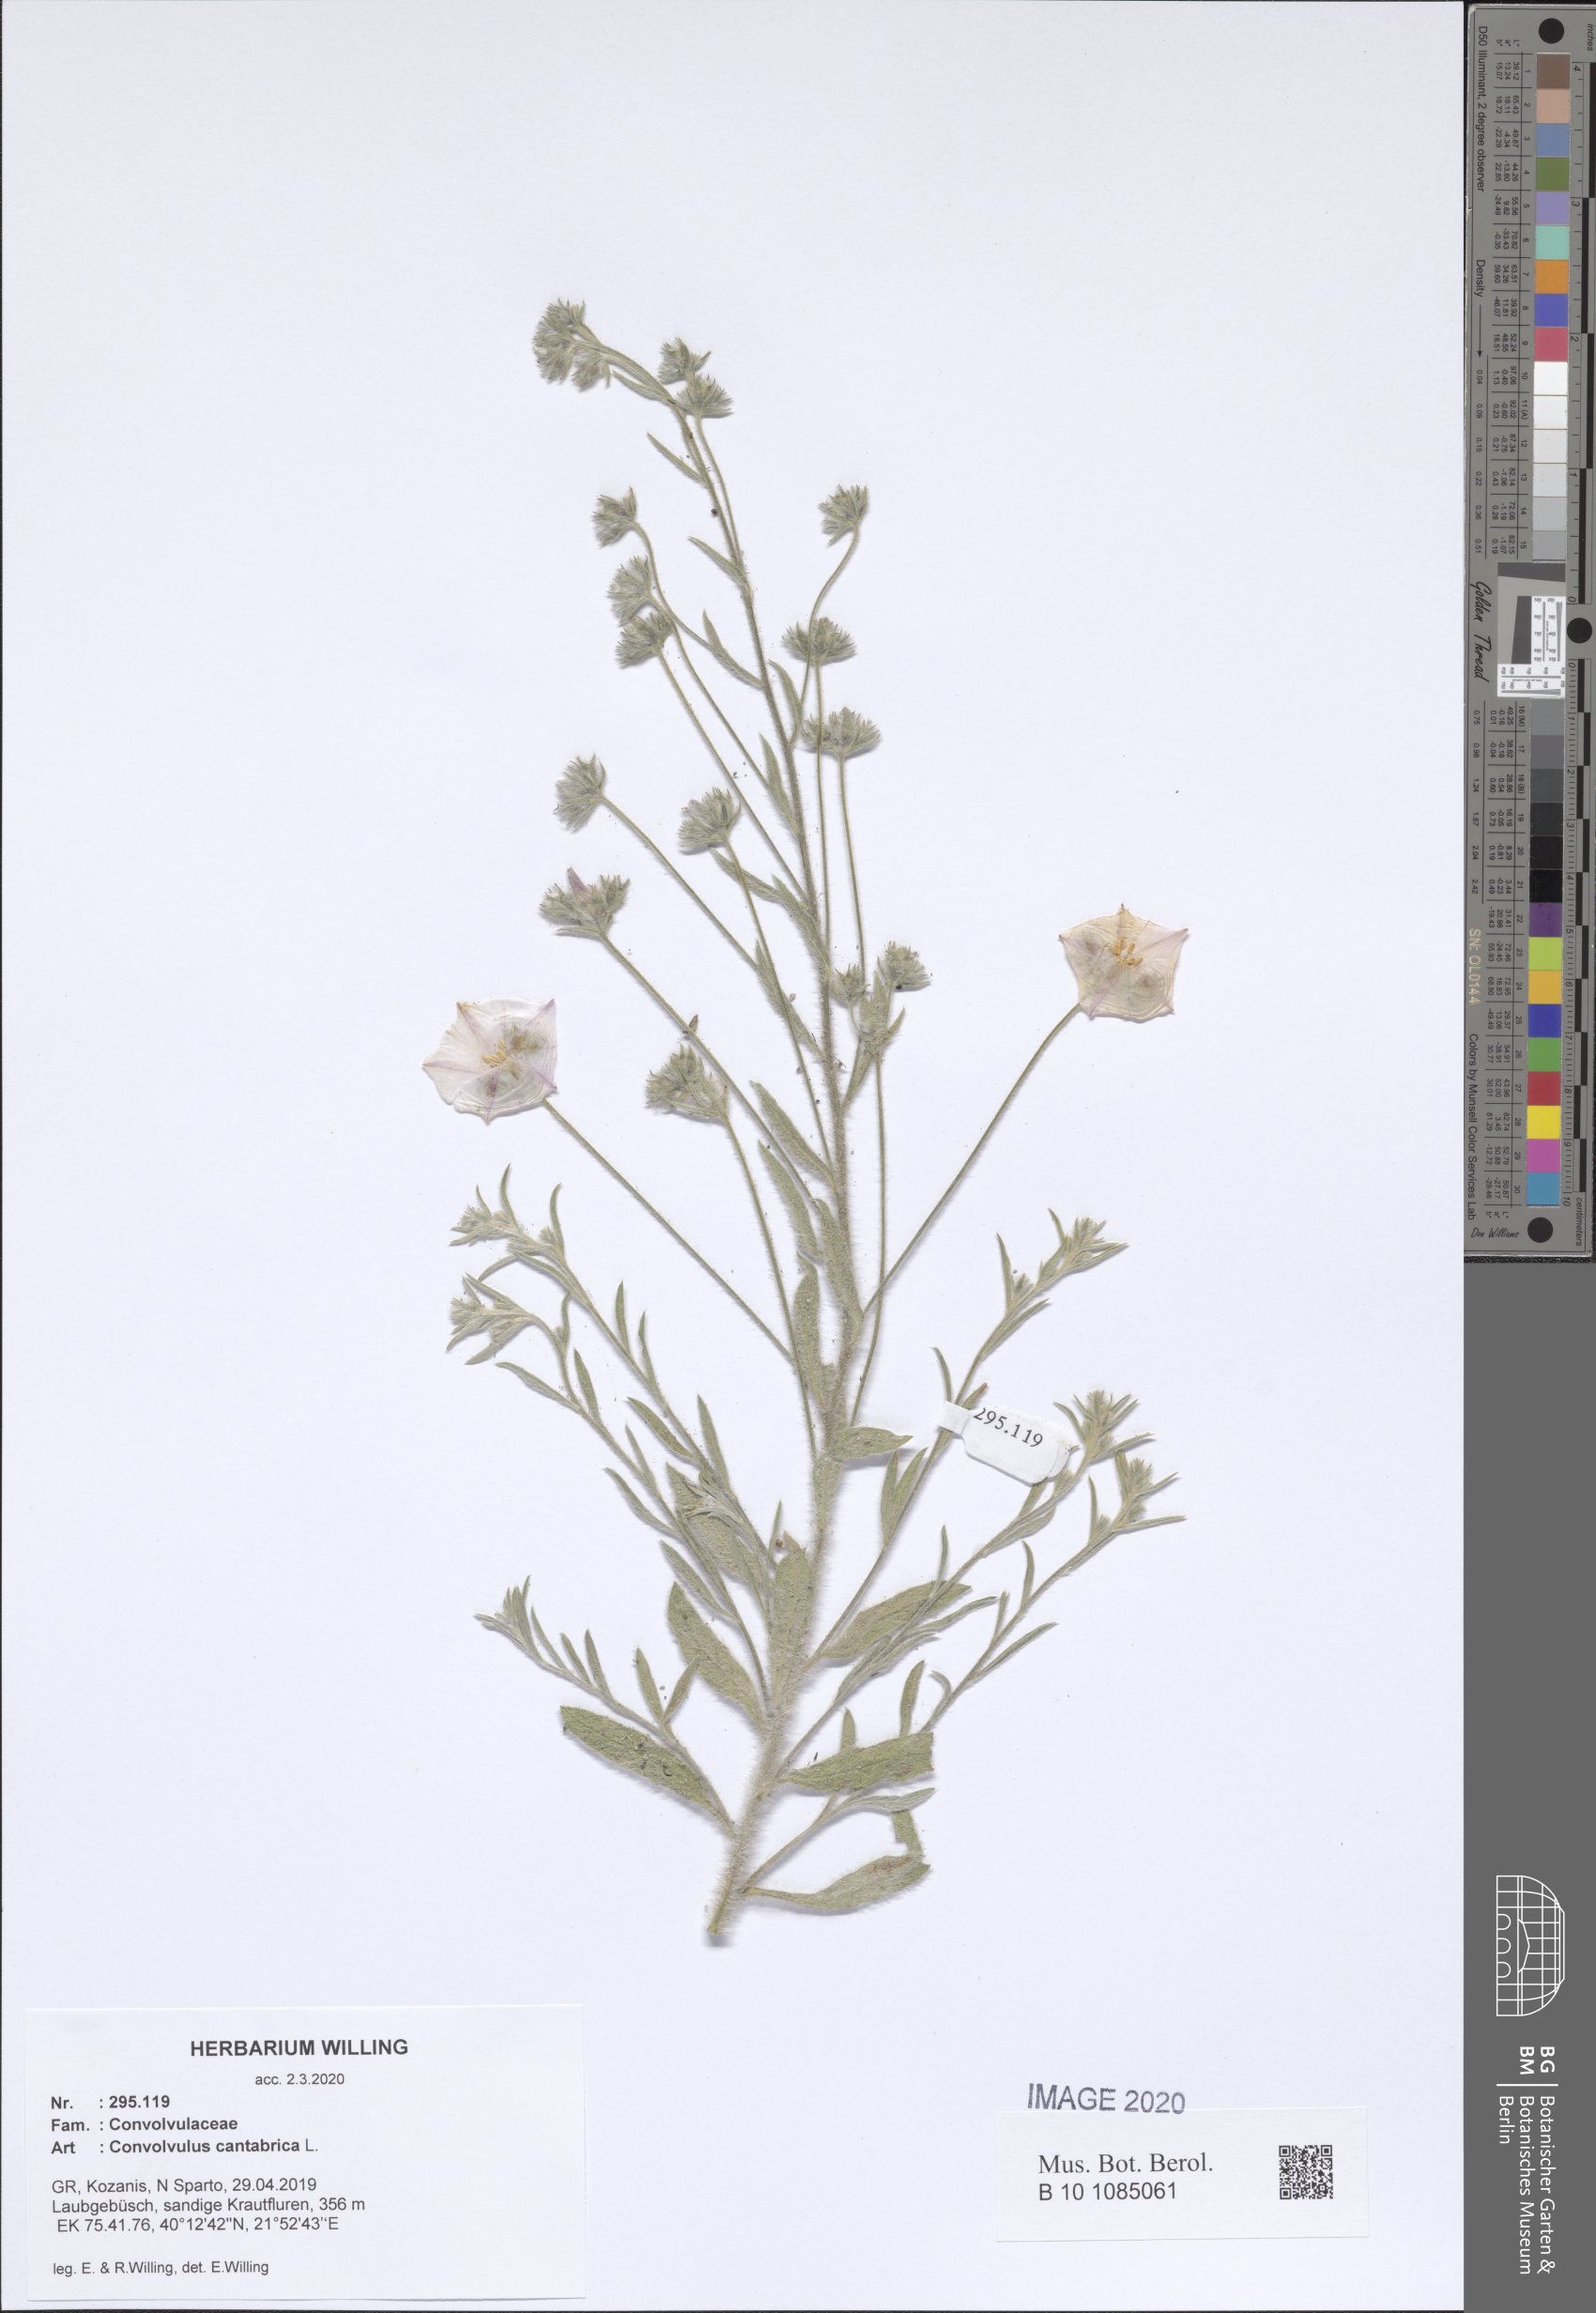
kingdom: Plantae
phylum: Tracheophyta
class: Magnoliopsida
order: Solanales
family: Convolvulaceae
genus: Convolvulus
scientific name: Convolvulus cantabrica
